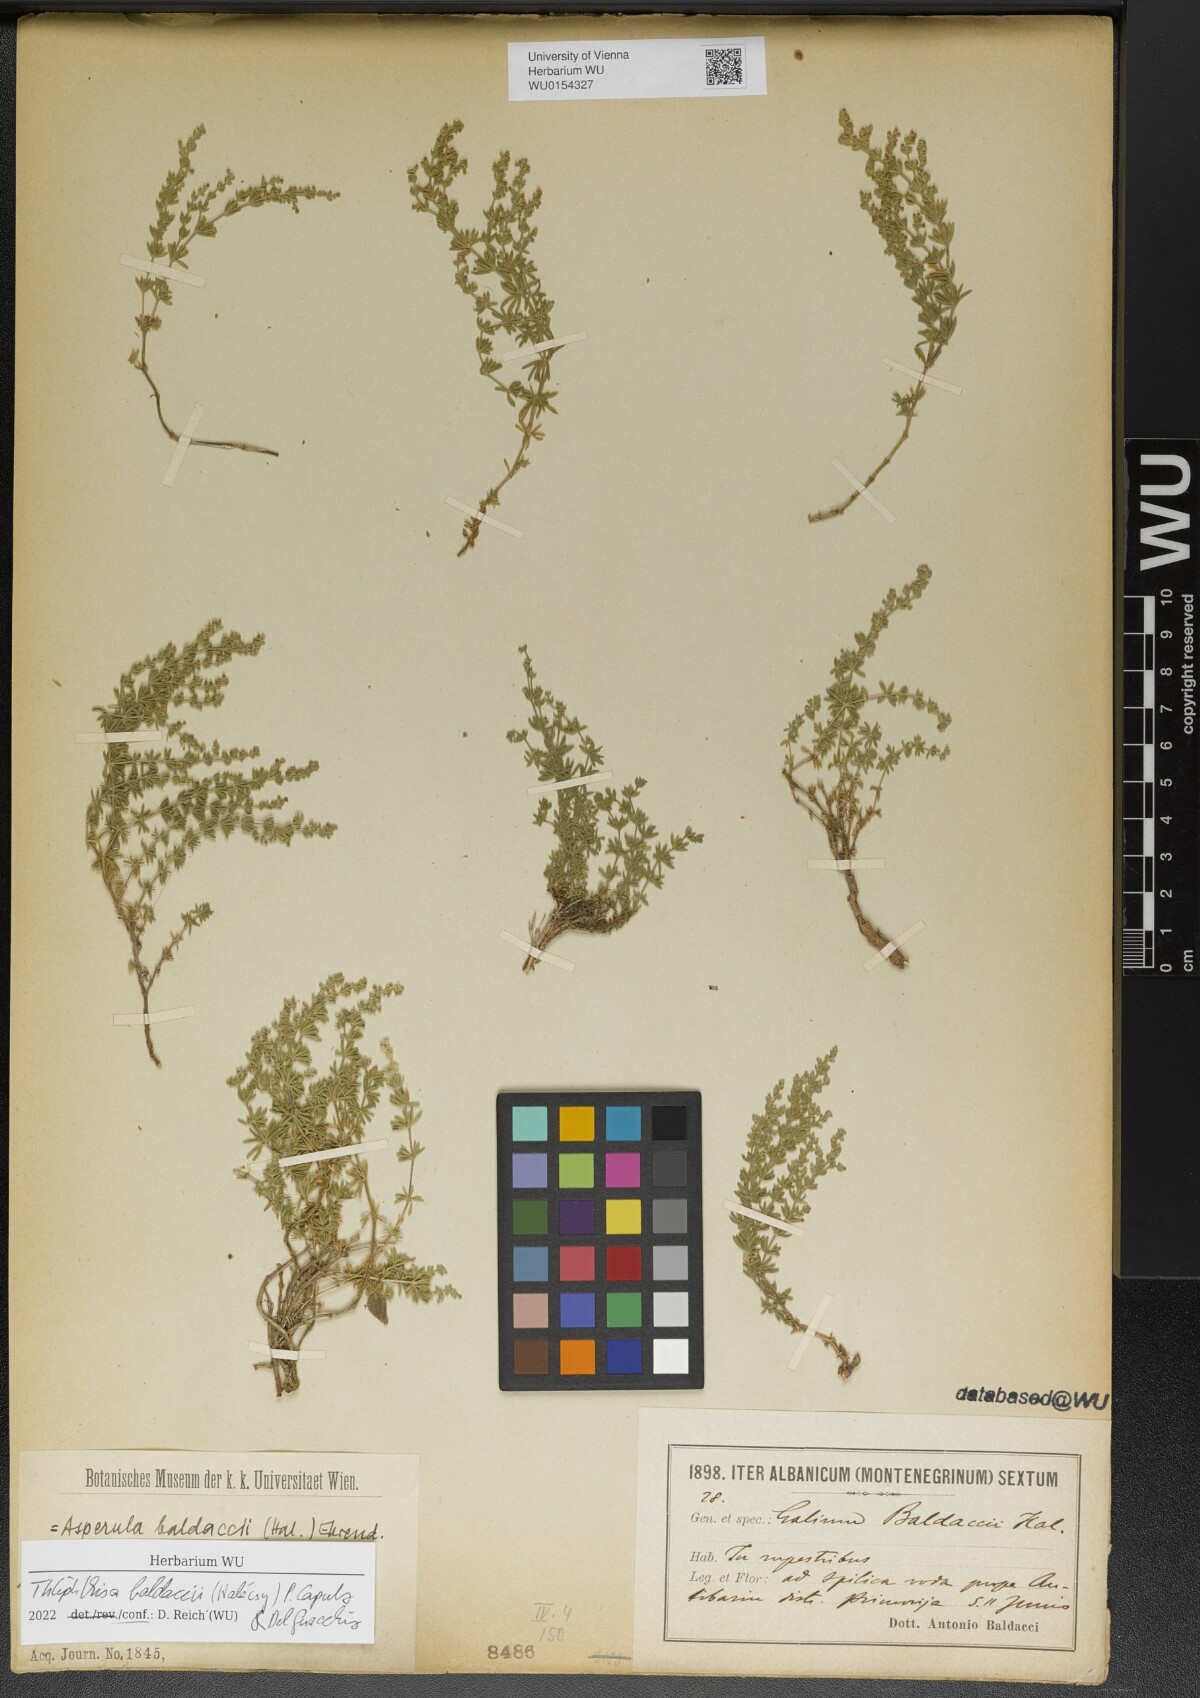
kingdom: Plantae
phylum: Tracheophyta
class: Magnoliopsida
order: Gentianales
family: Rubiaceae
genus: Thliphthisa
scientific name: Thliphthisa baldaccii
